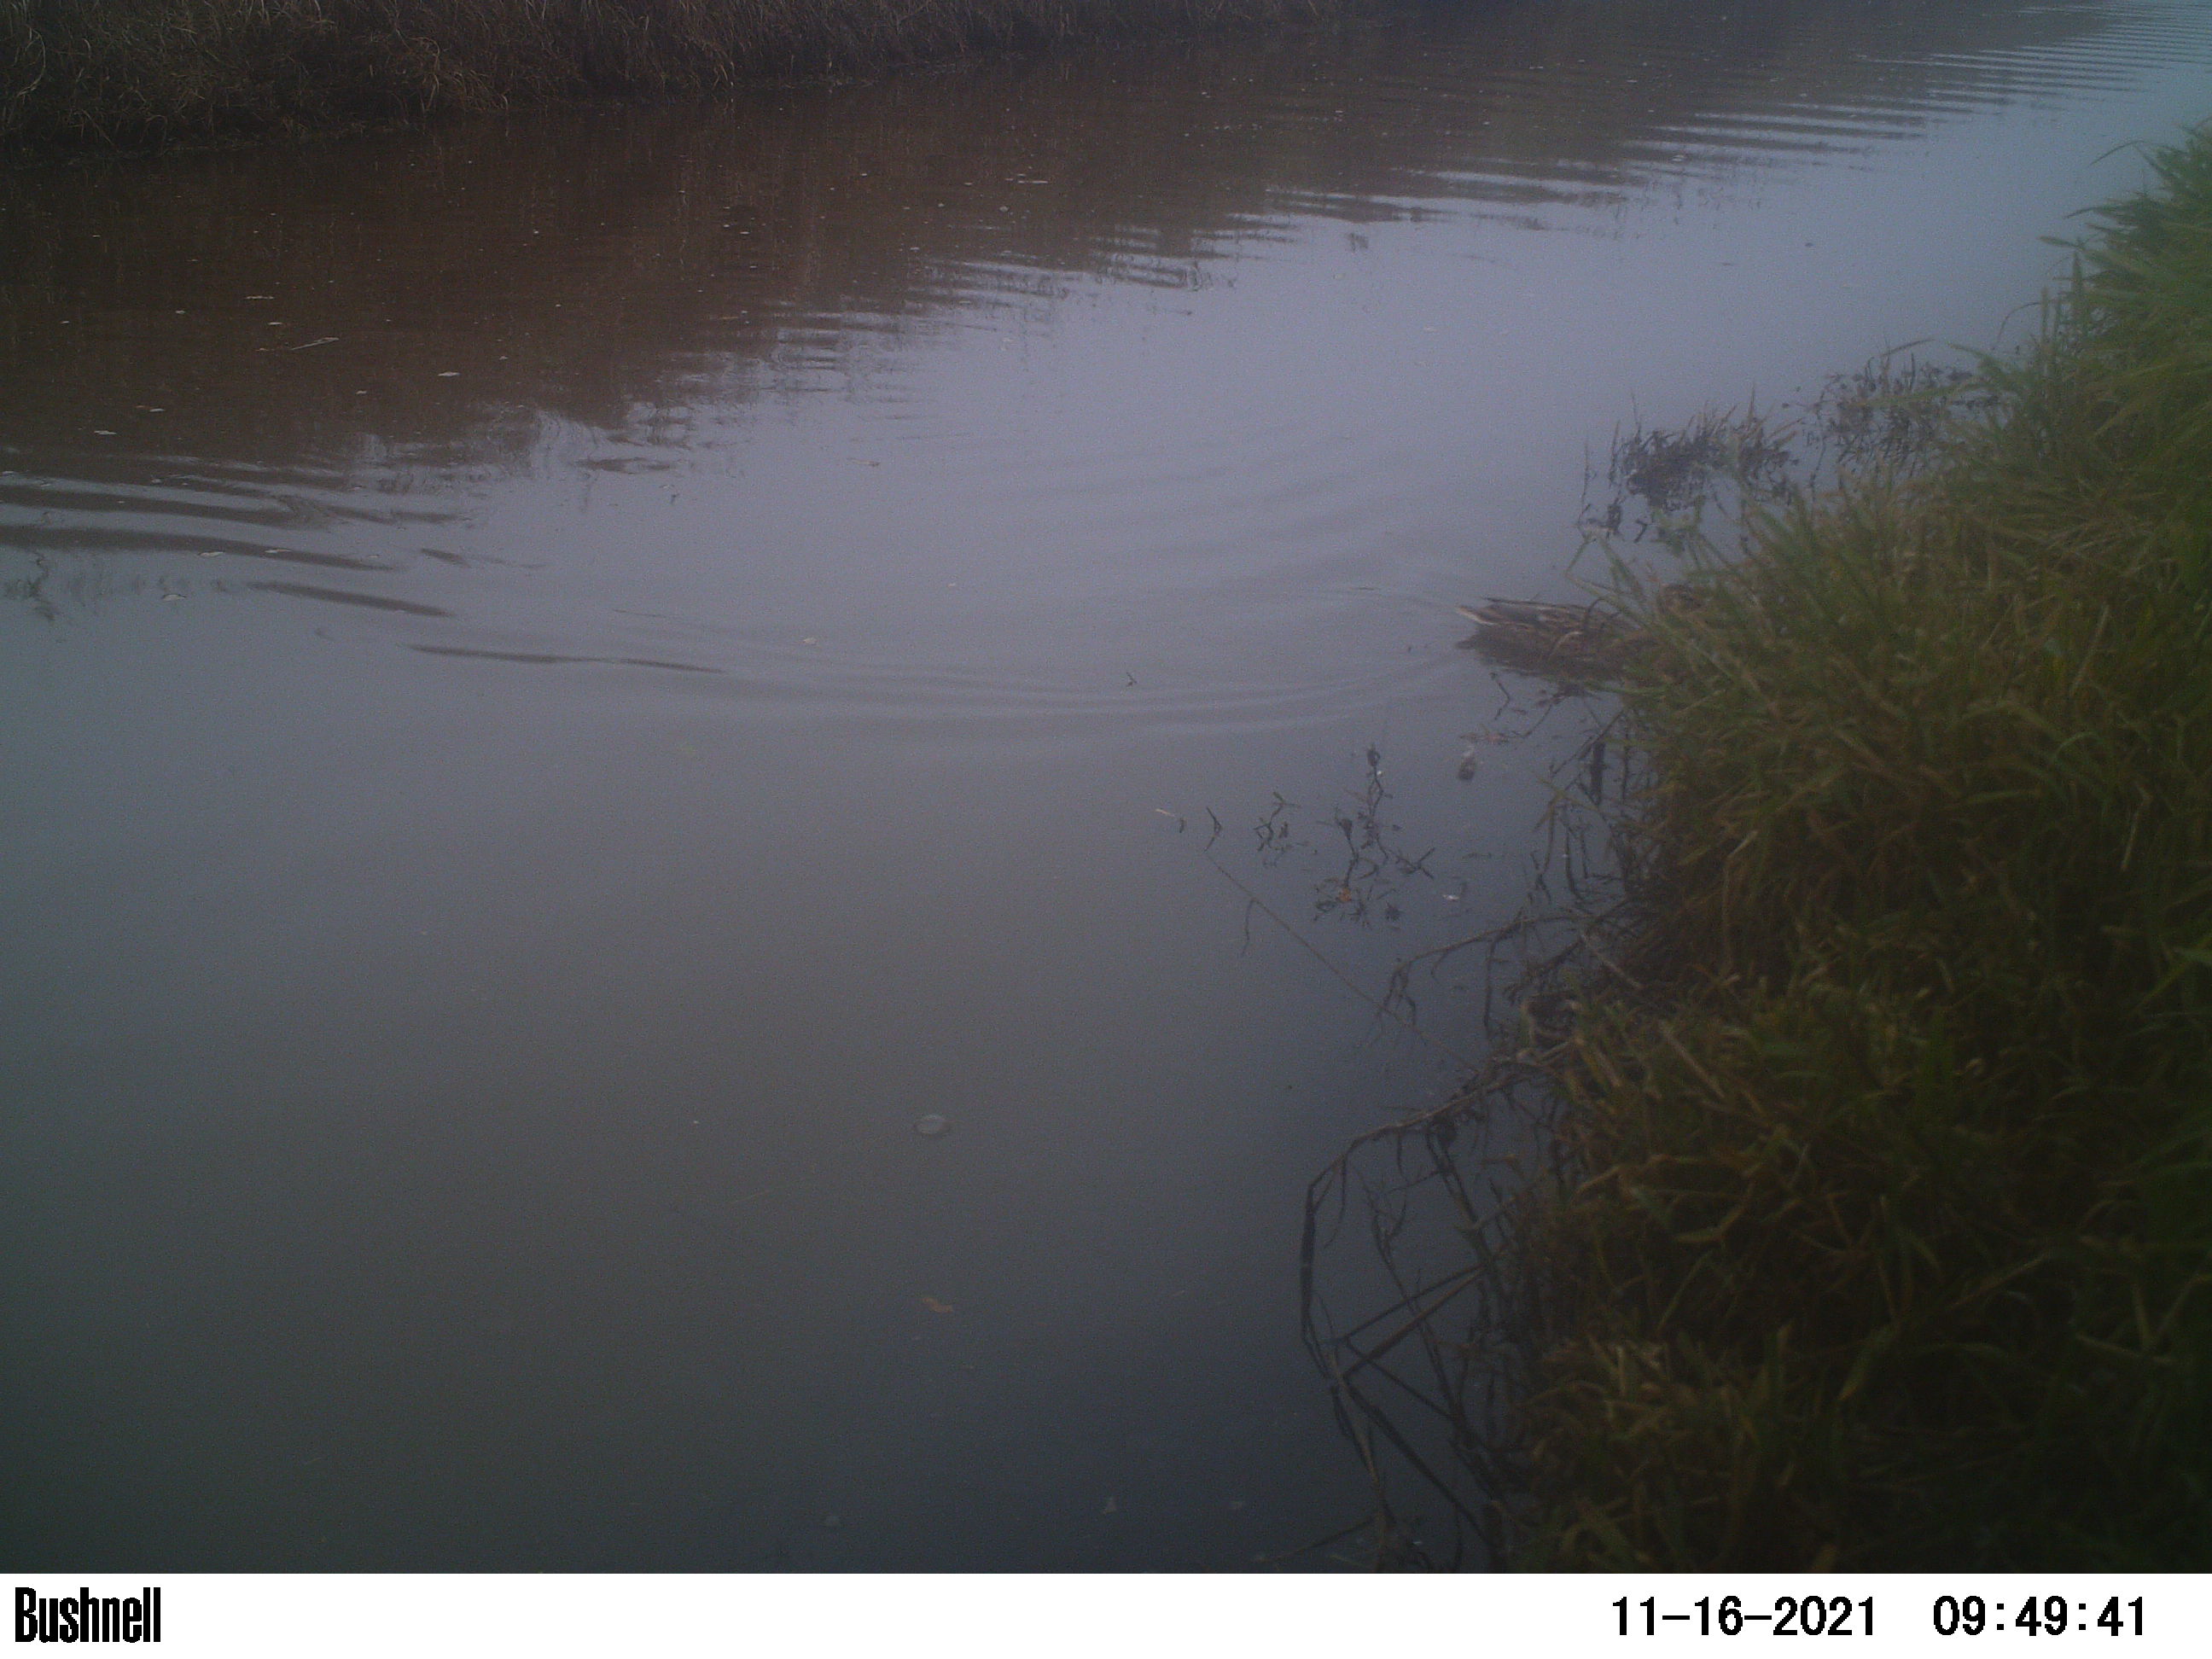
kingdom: Animalia
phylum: Chordata
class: Aves
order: Anseriformes
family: Anatidae
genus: Anas
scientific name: Anas
